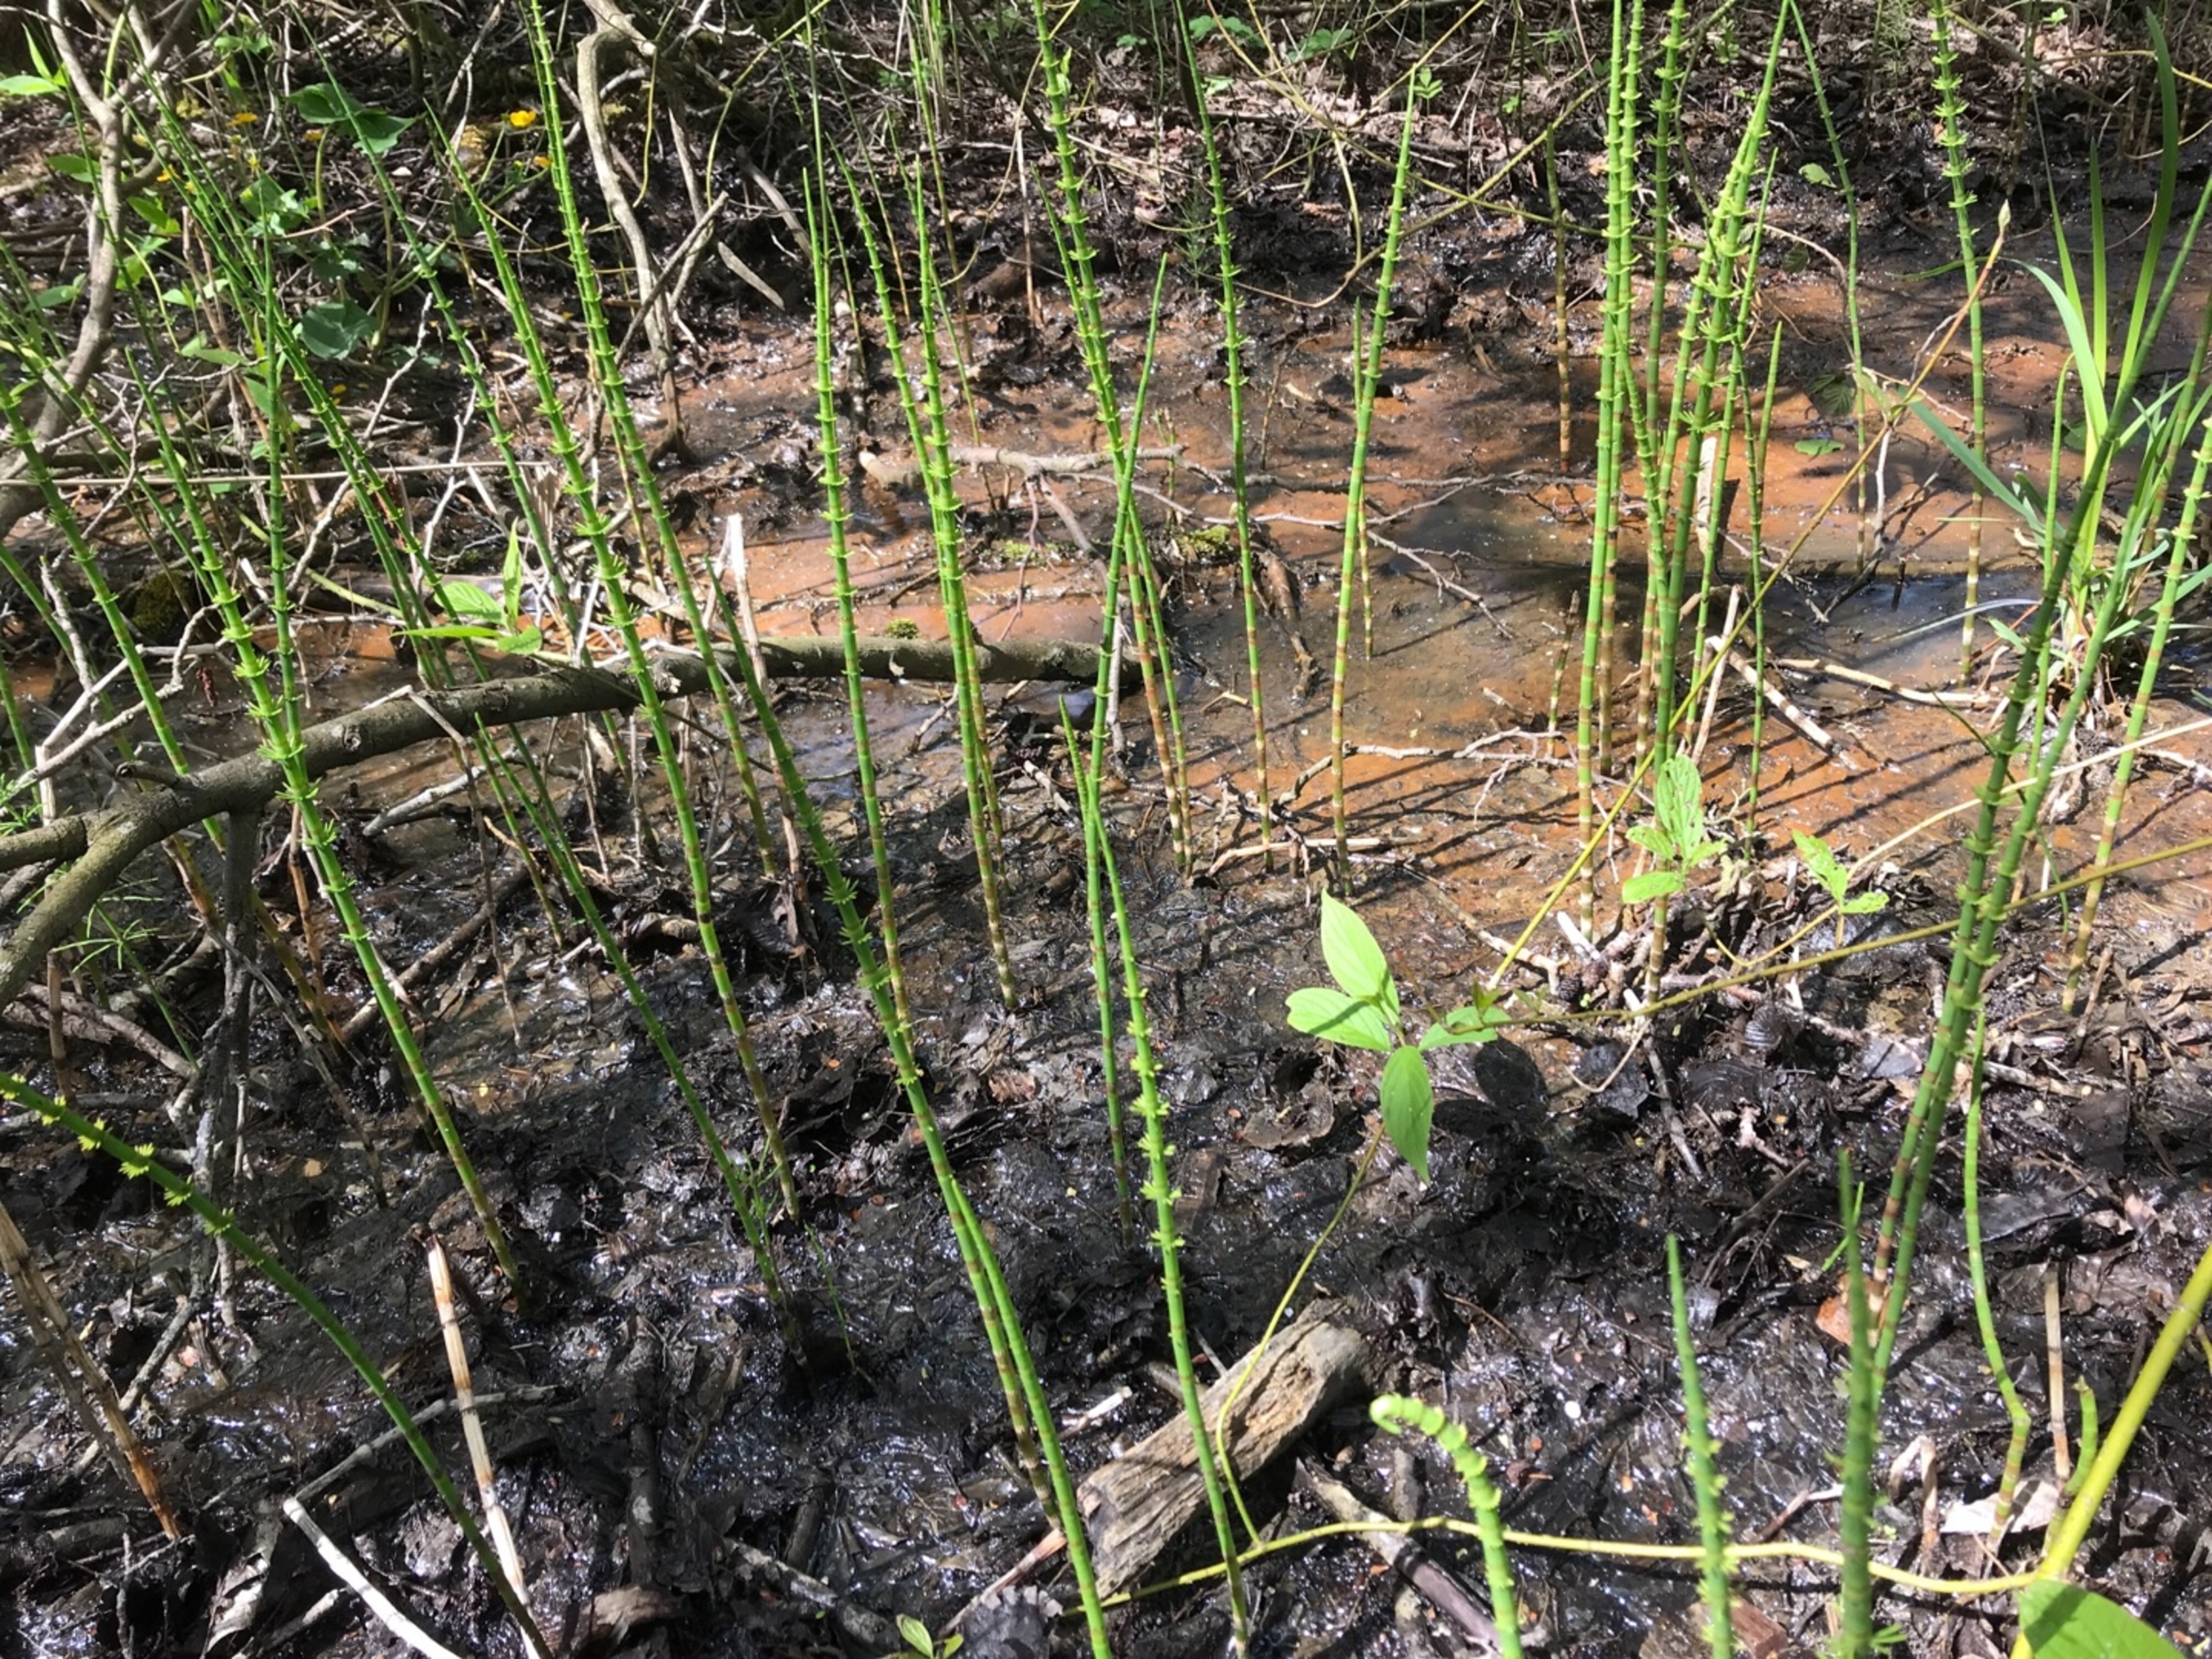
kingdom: Plantae
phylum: Tracheophyta
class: Polypodiopsida
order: Equisetales
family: Equisetaceae
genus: Equisetum
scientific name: Equisetum fluviatile
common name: Dynd-padderok
